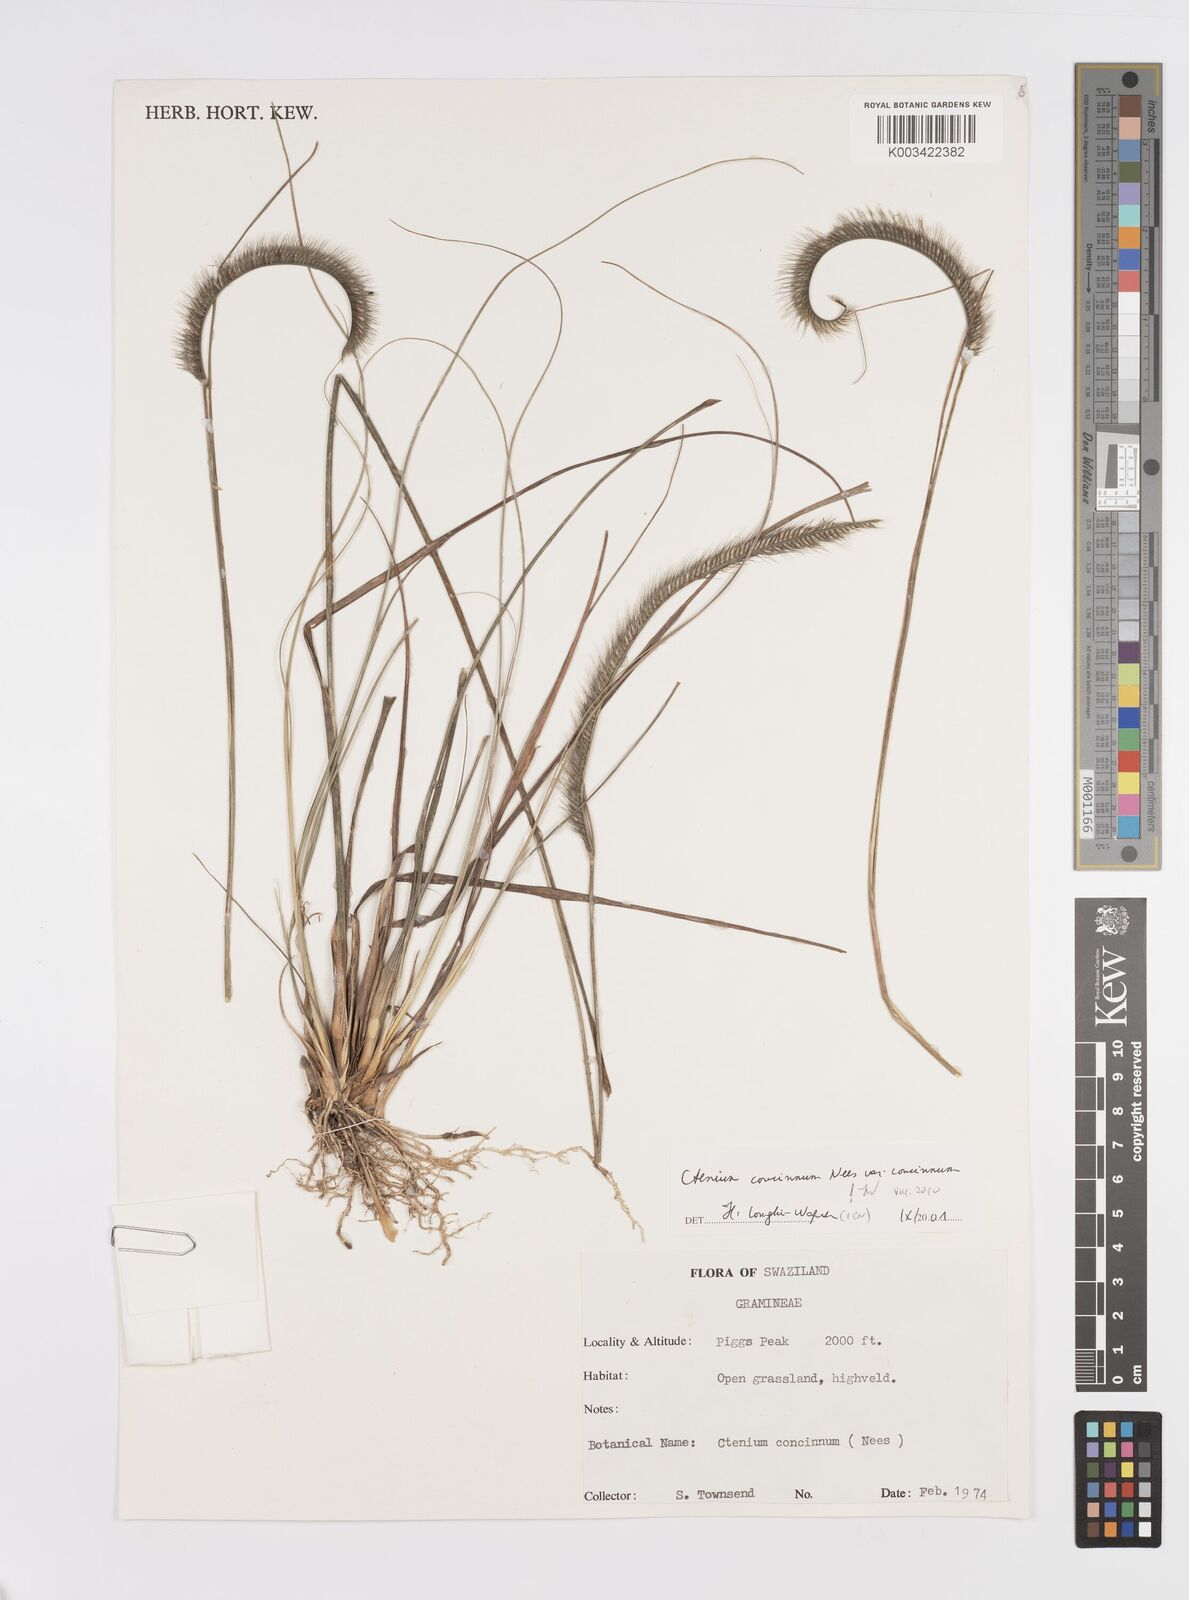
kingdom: Plantae
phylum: Tracheophyta
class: Liliopsida
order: Poales
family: Poaceae
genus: Ctenium
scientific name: Ctenium concinnum
